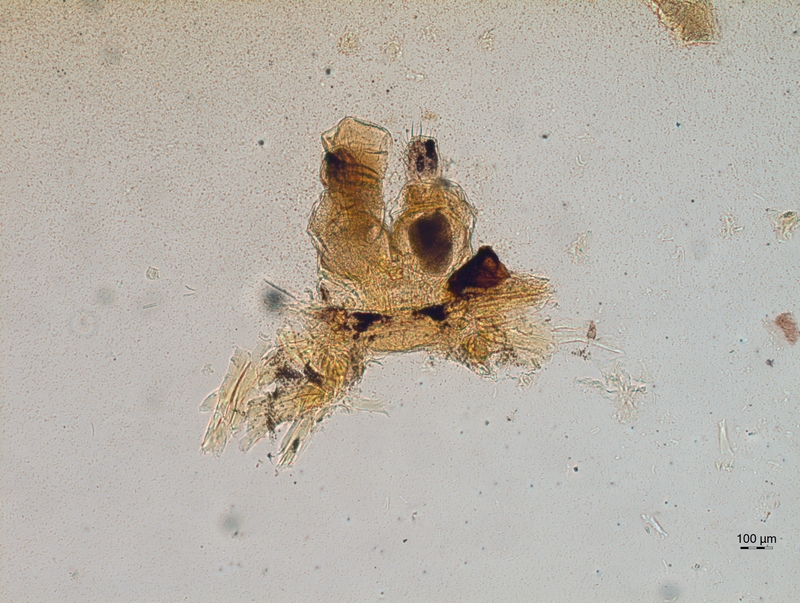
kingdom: Animalia
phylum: Arthropoda
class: Diplopoda
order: Chordeumatida
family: Chordeumatidae
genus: Mycogona
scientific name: Mycogona germanica
